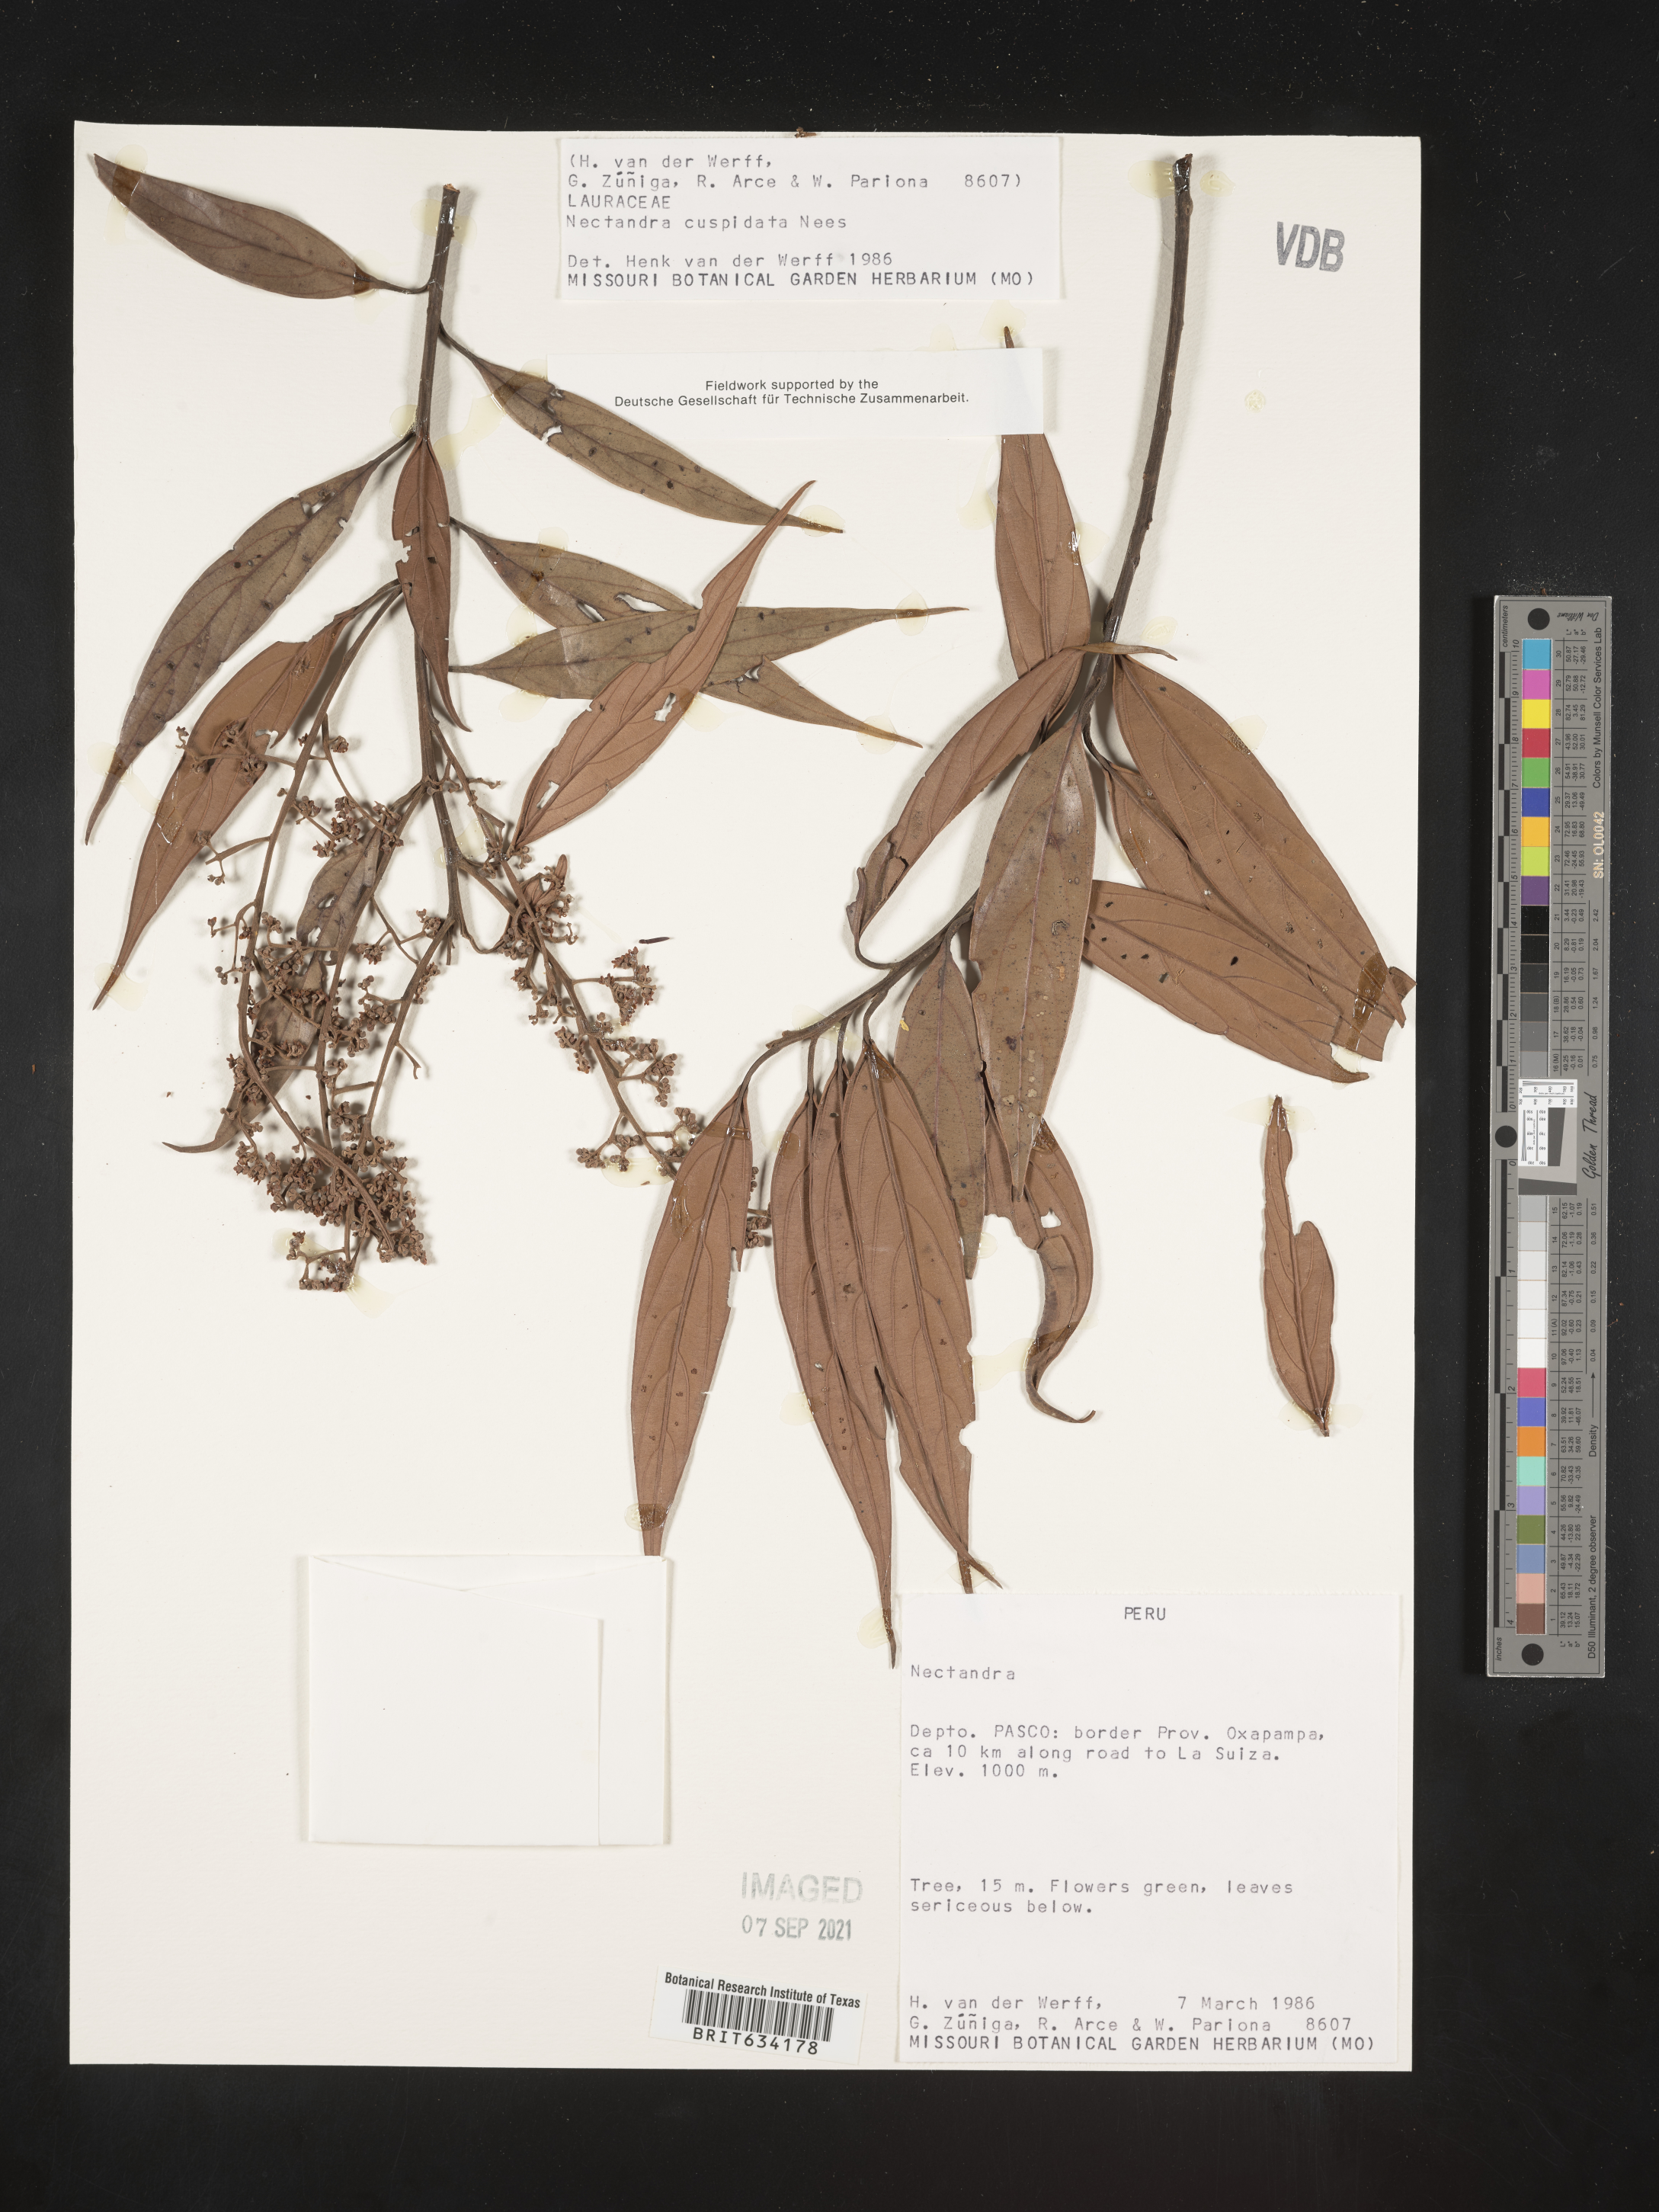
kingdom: Plantae
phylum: Tracheophyta
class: Magnoliopsida
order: Laurales
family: Lauraceae
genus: Nectandra
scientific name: Nectandra
